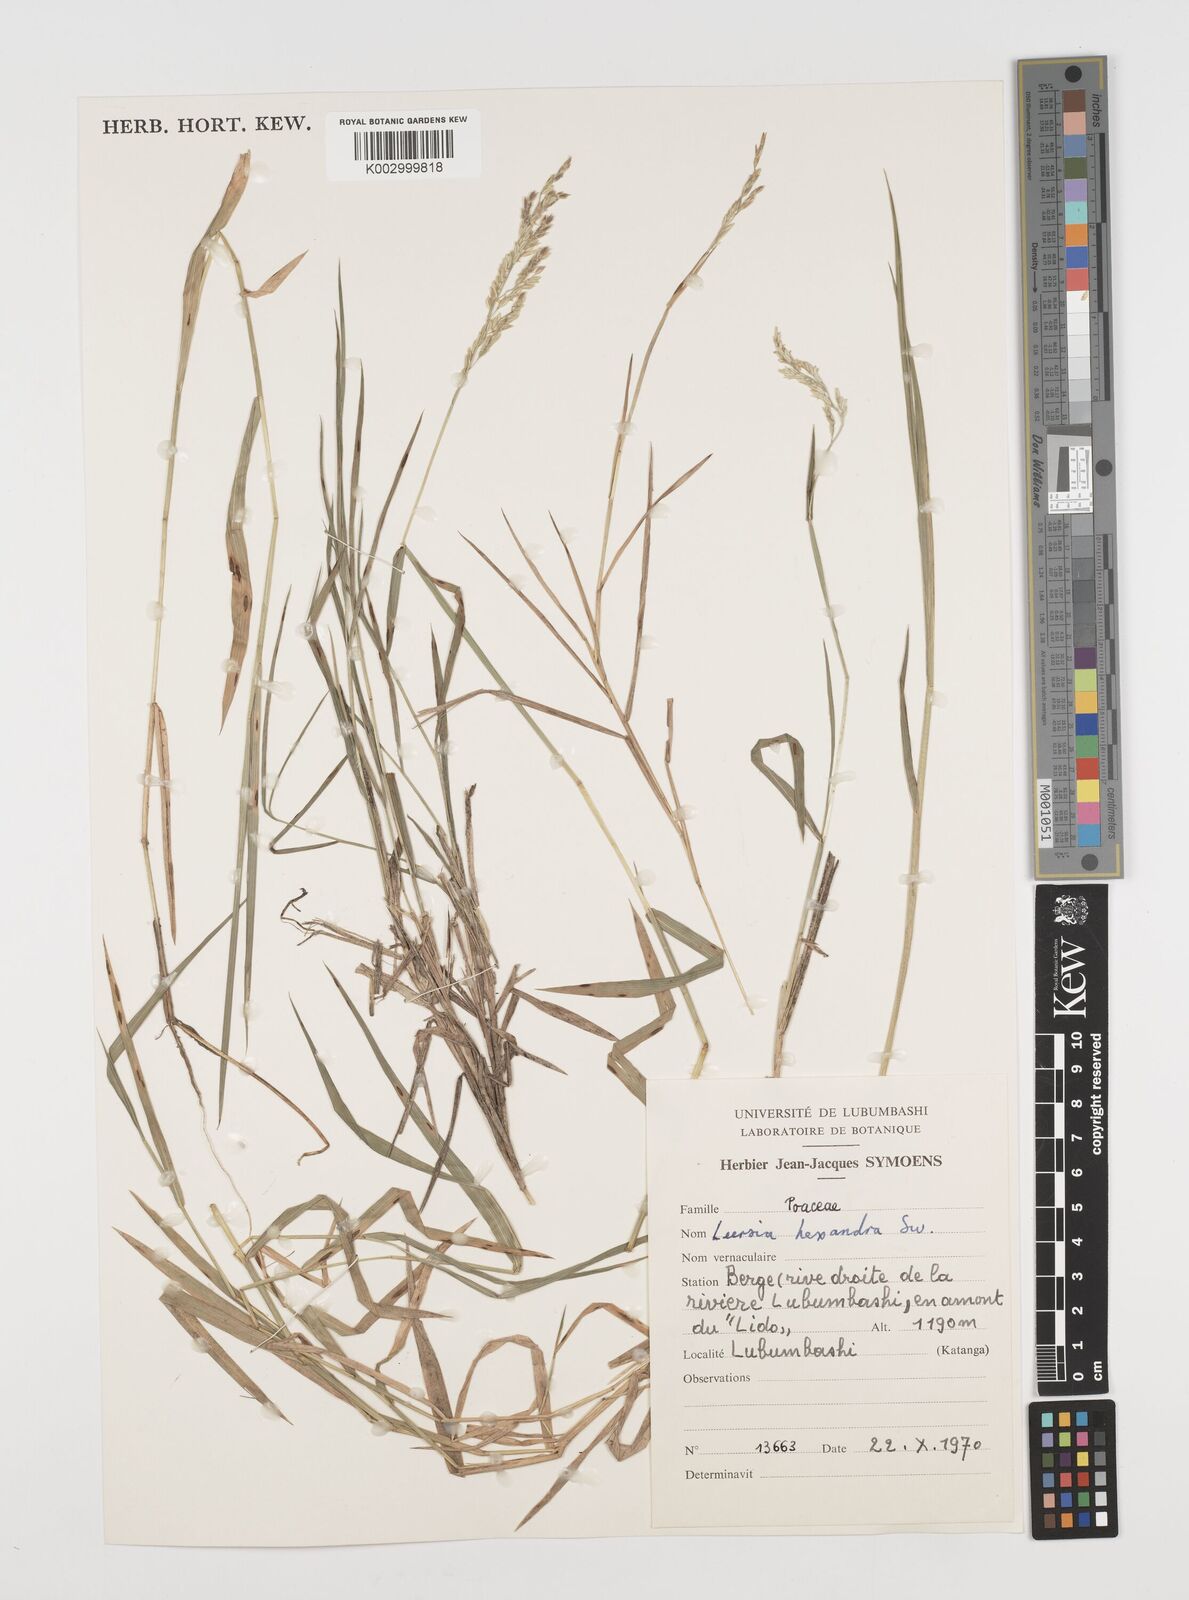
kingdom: Plantae
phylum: Tracheophyta
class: Liliopsida
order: Poales
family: Poaceae
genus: Leersia
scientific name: Leersia hexandra
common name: Southern cut grass
